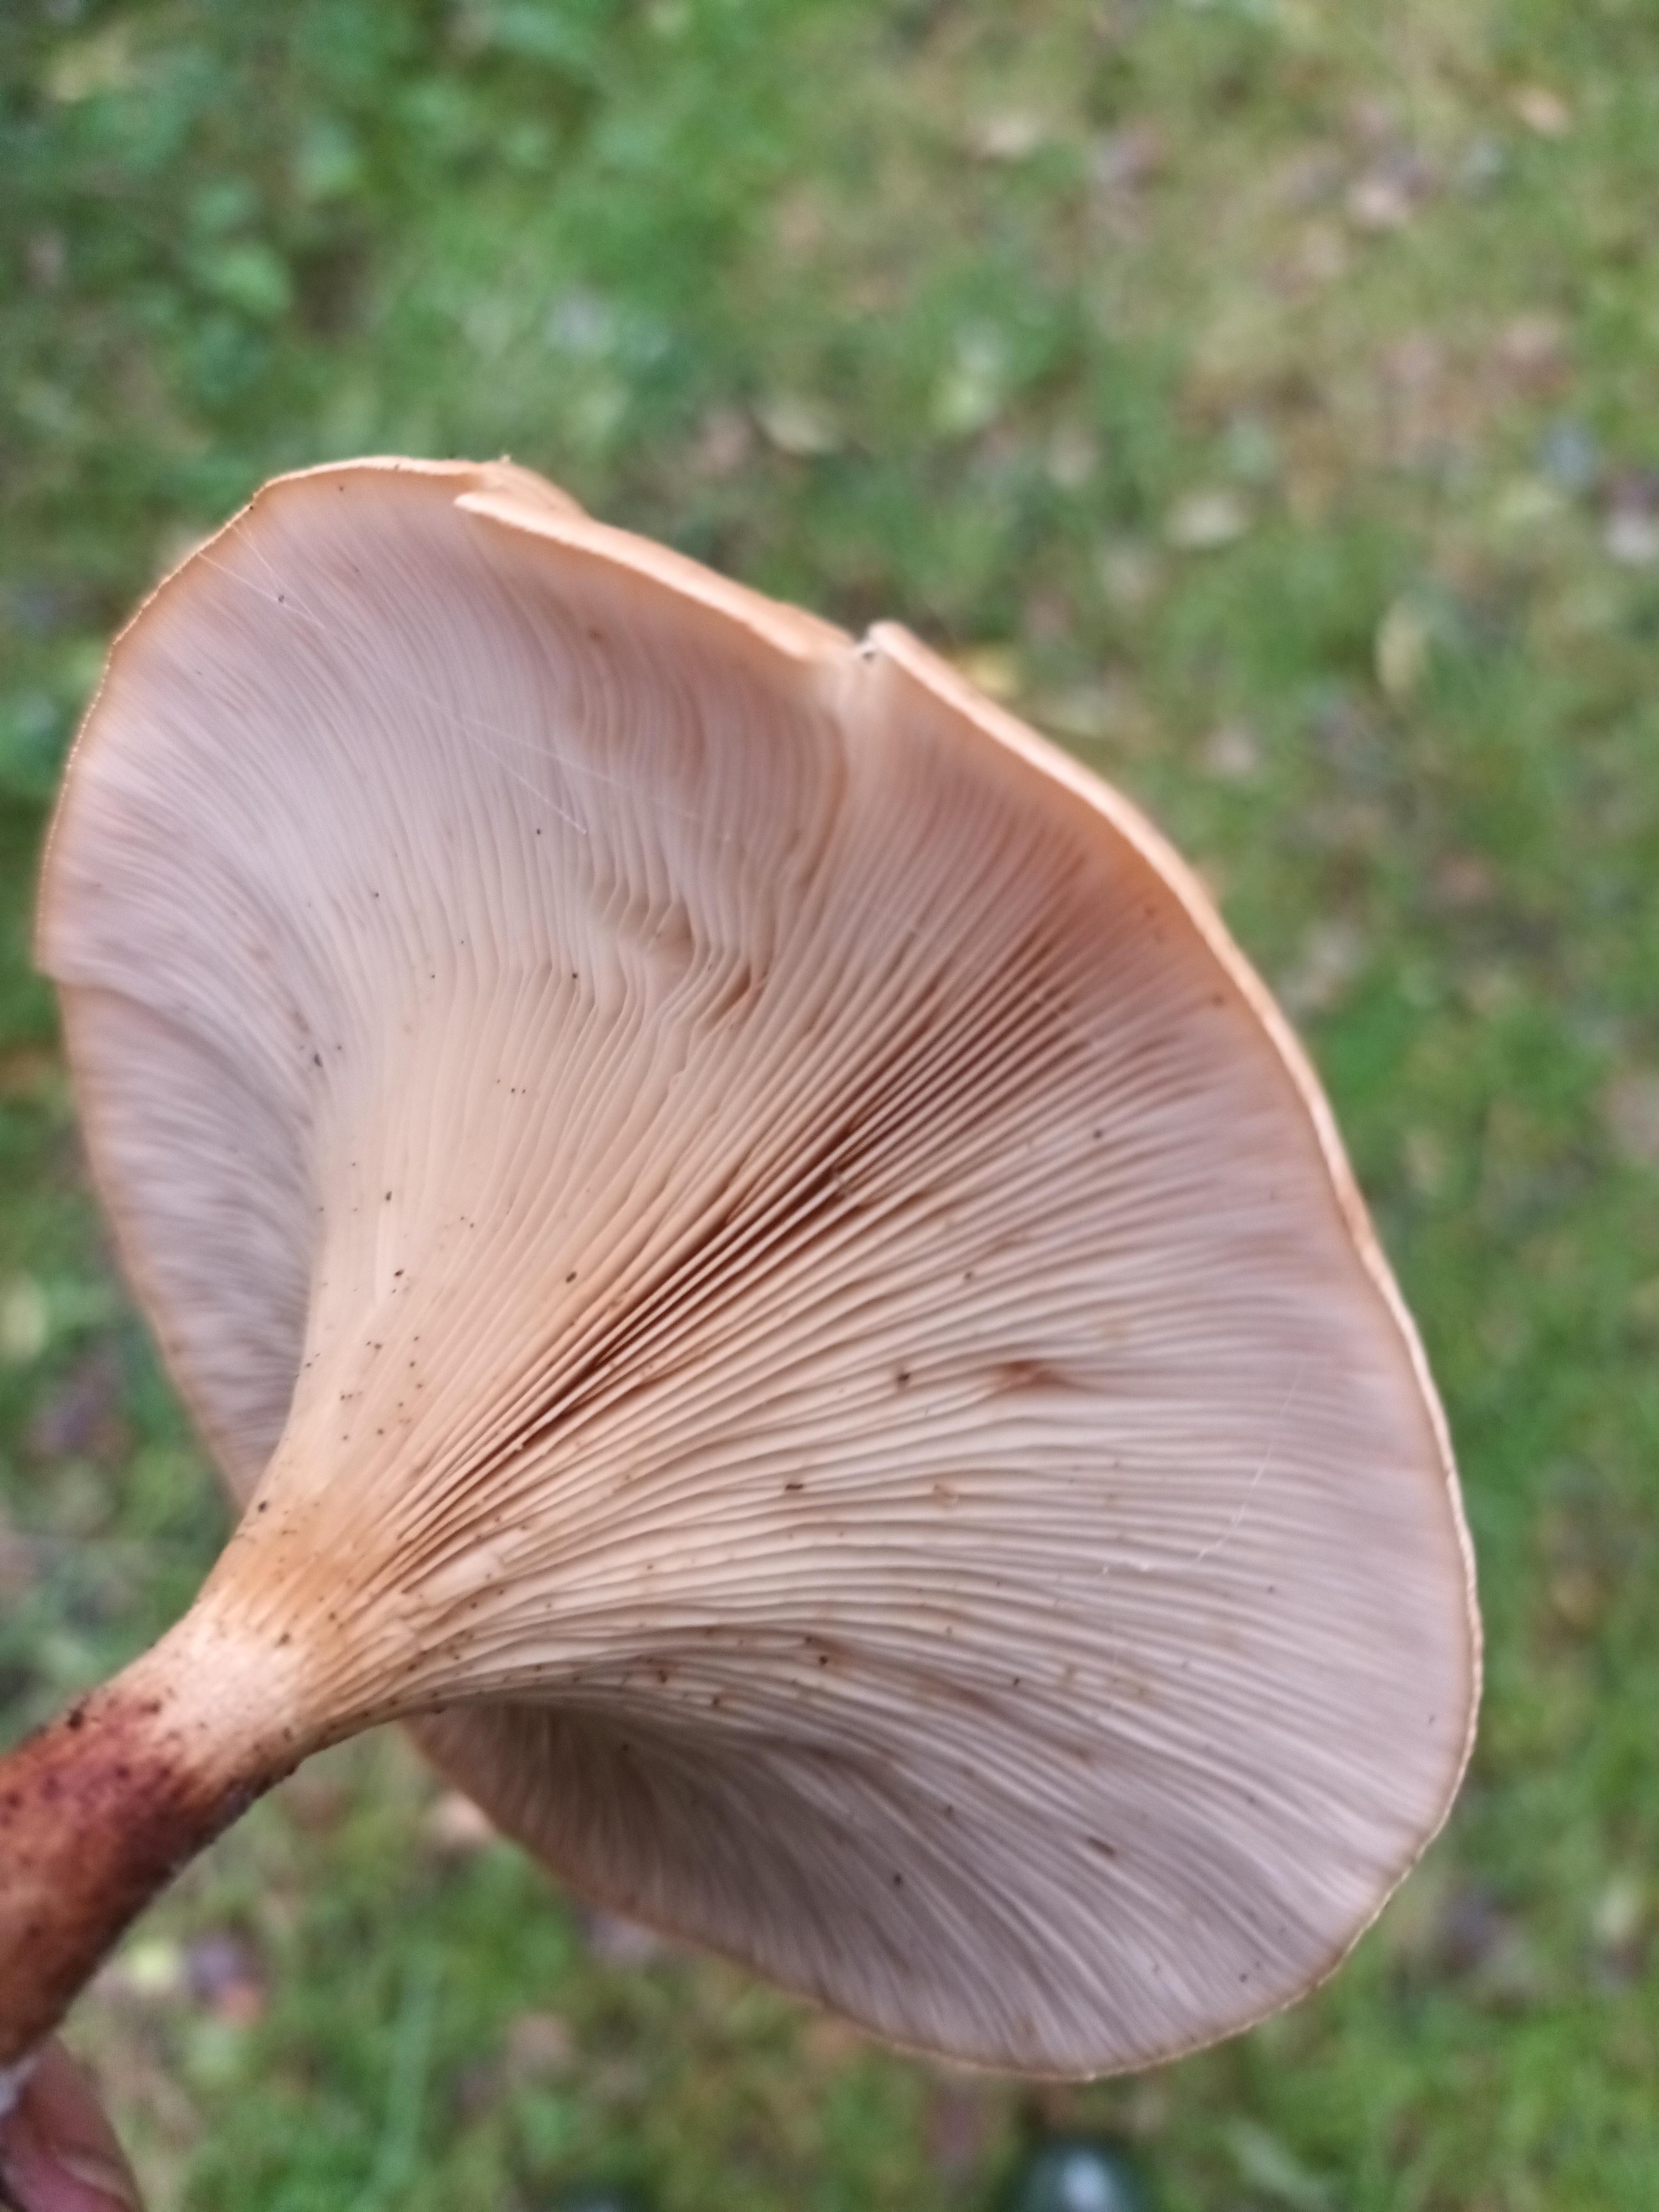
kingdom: Fungi
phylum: Basidiomycota
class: Agaricomycetes
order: Agaricales
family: Tricholomataceae
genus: Paralepista
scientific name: Paralepista flaccida
